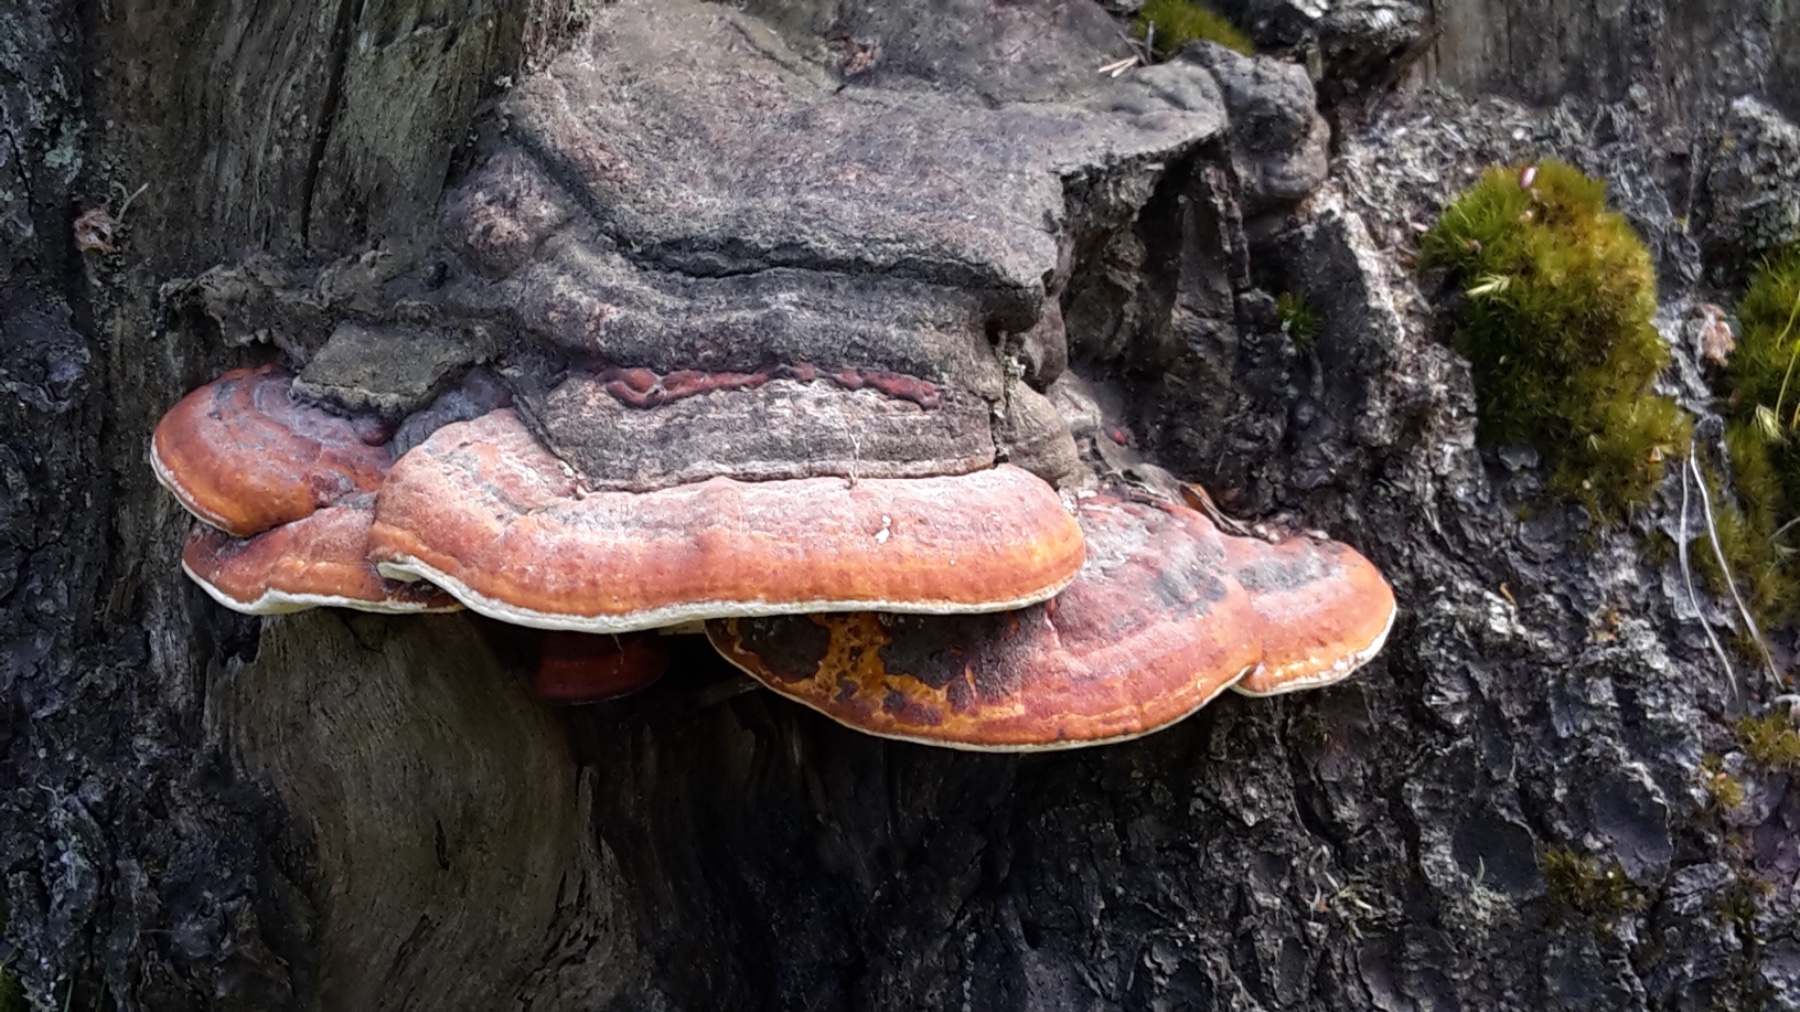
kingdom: Fungi
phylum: Basidiomycota
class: Agaricomycetes
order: Polyporales
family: Fomitopsidaceae
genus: Fomitopsis
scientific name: Fomitopsis pinicola
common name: randbæltet hovporesvamp
